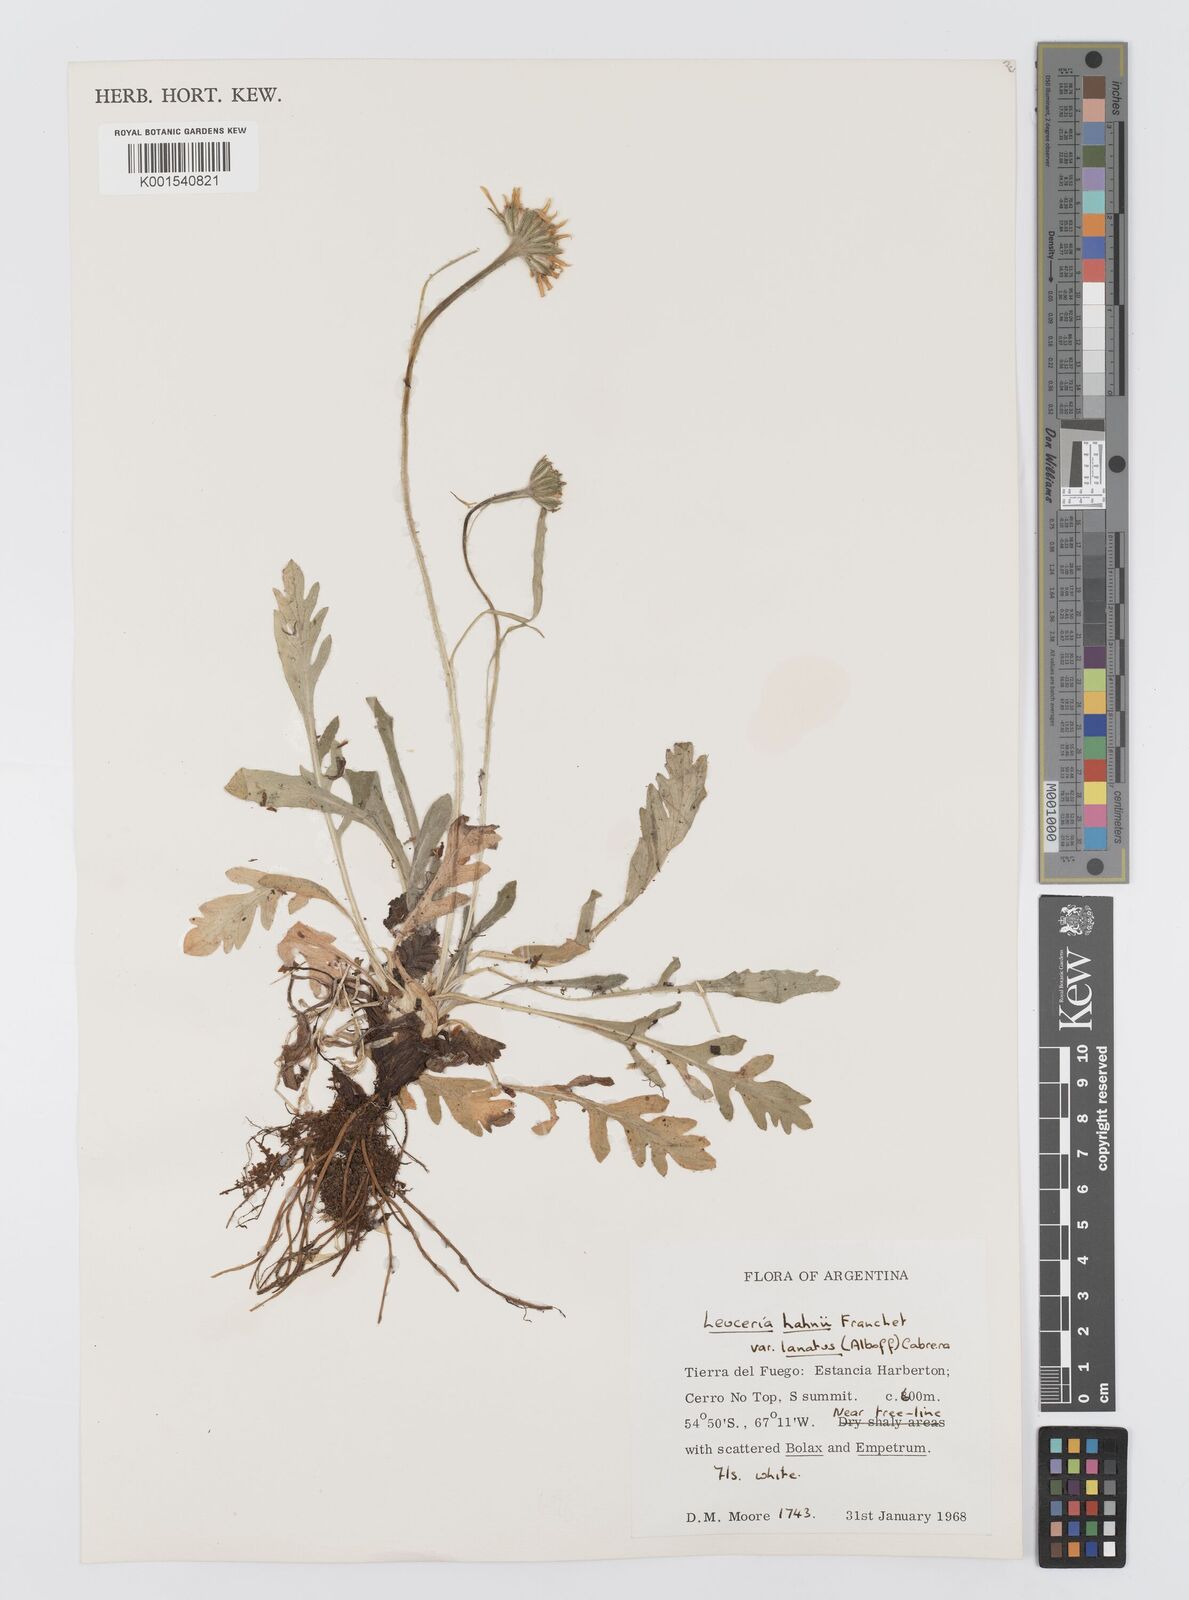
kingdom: Plantae
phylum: Tracheophyta
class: Magnoliopsida
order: Asterales
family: Asteraceae
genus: Leucheria
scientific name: Leucheria hahnii
